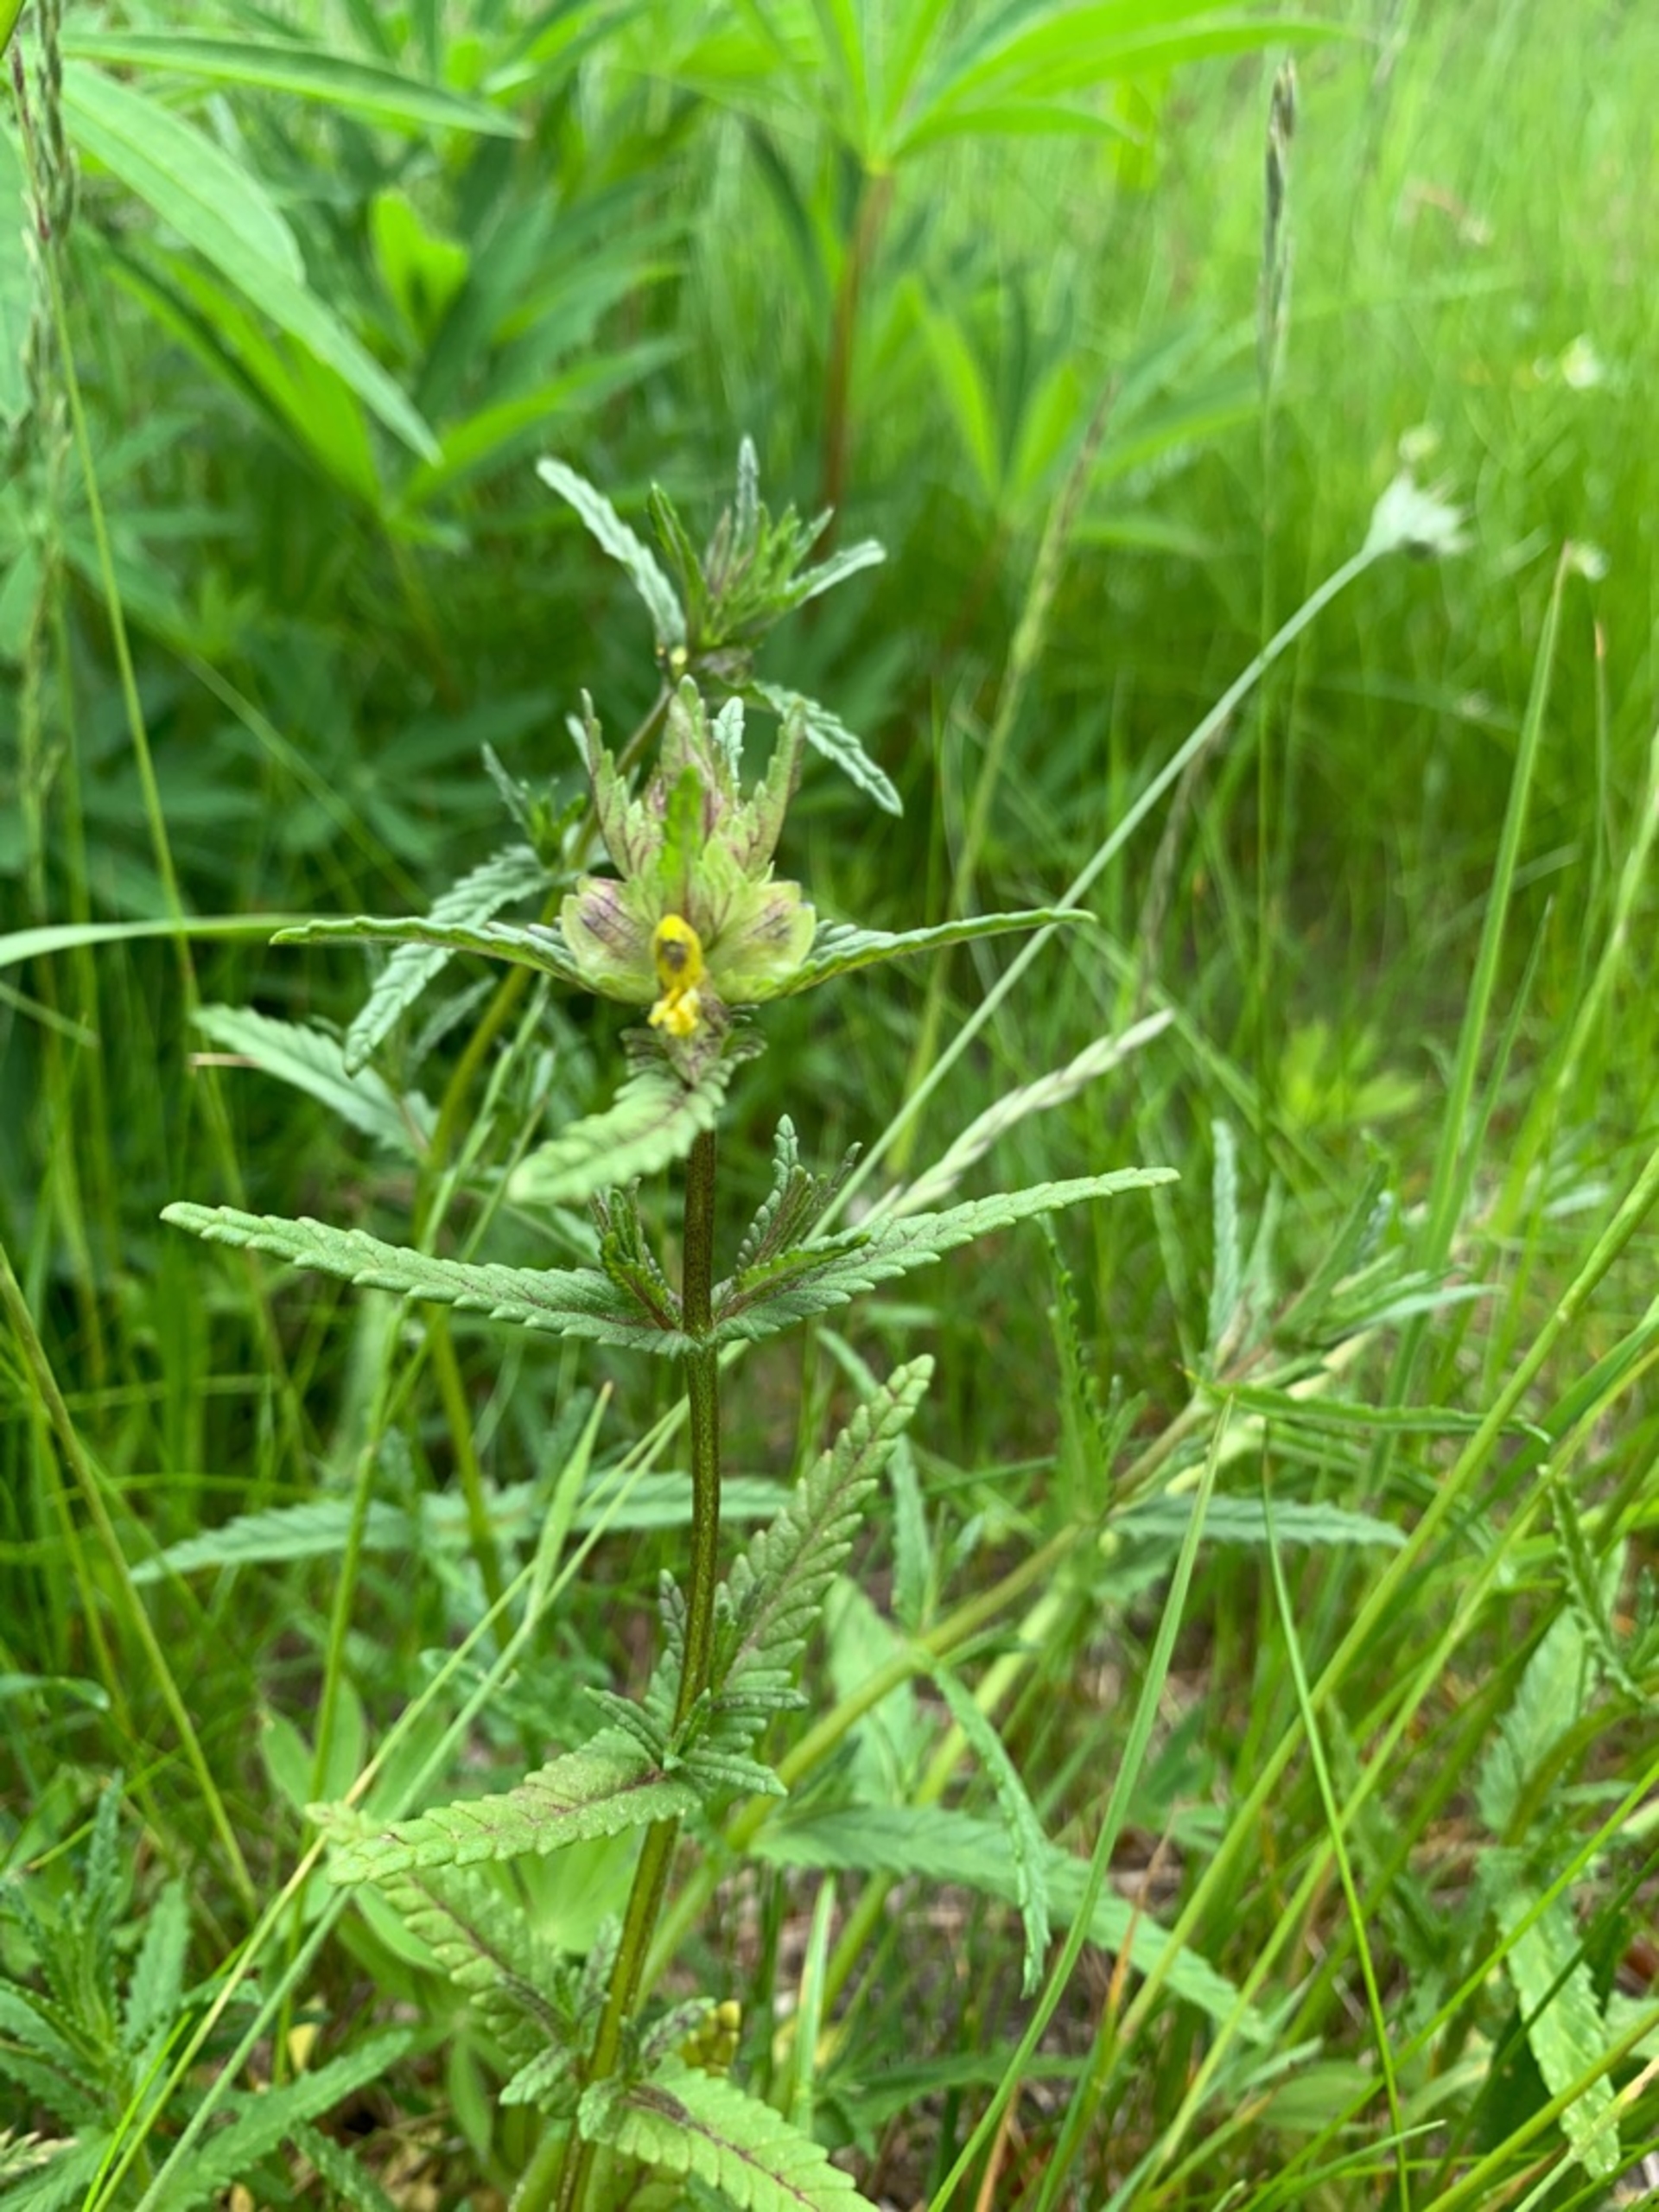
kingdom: Plantae
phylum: Tracheophyta
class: Magnoliopsida
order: Lamiales
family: Orobanchaceae
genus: Rhinanthus
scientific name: Rhinanthus minor
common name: Liden skjaller
